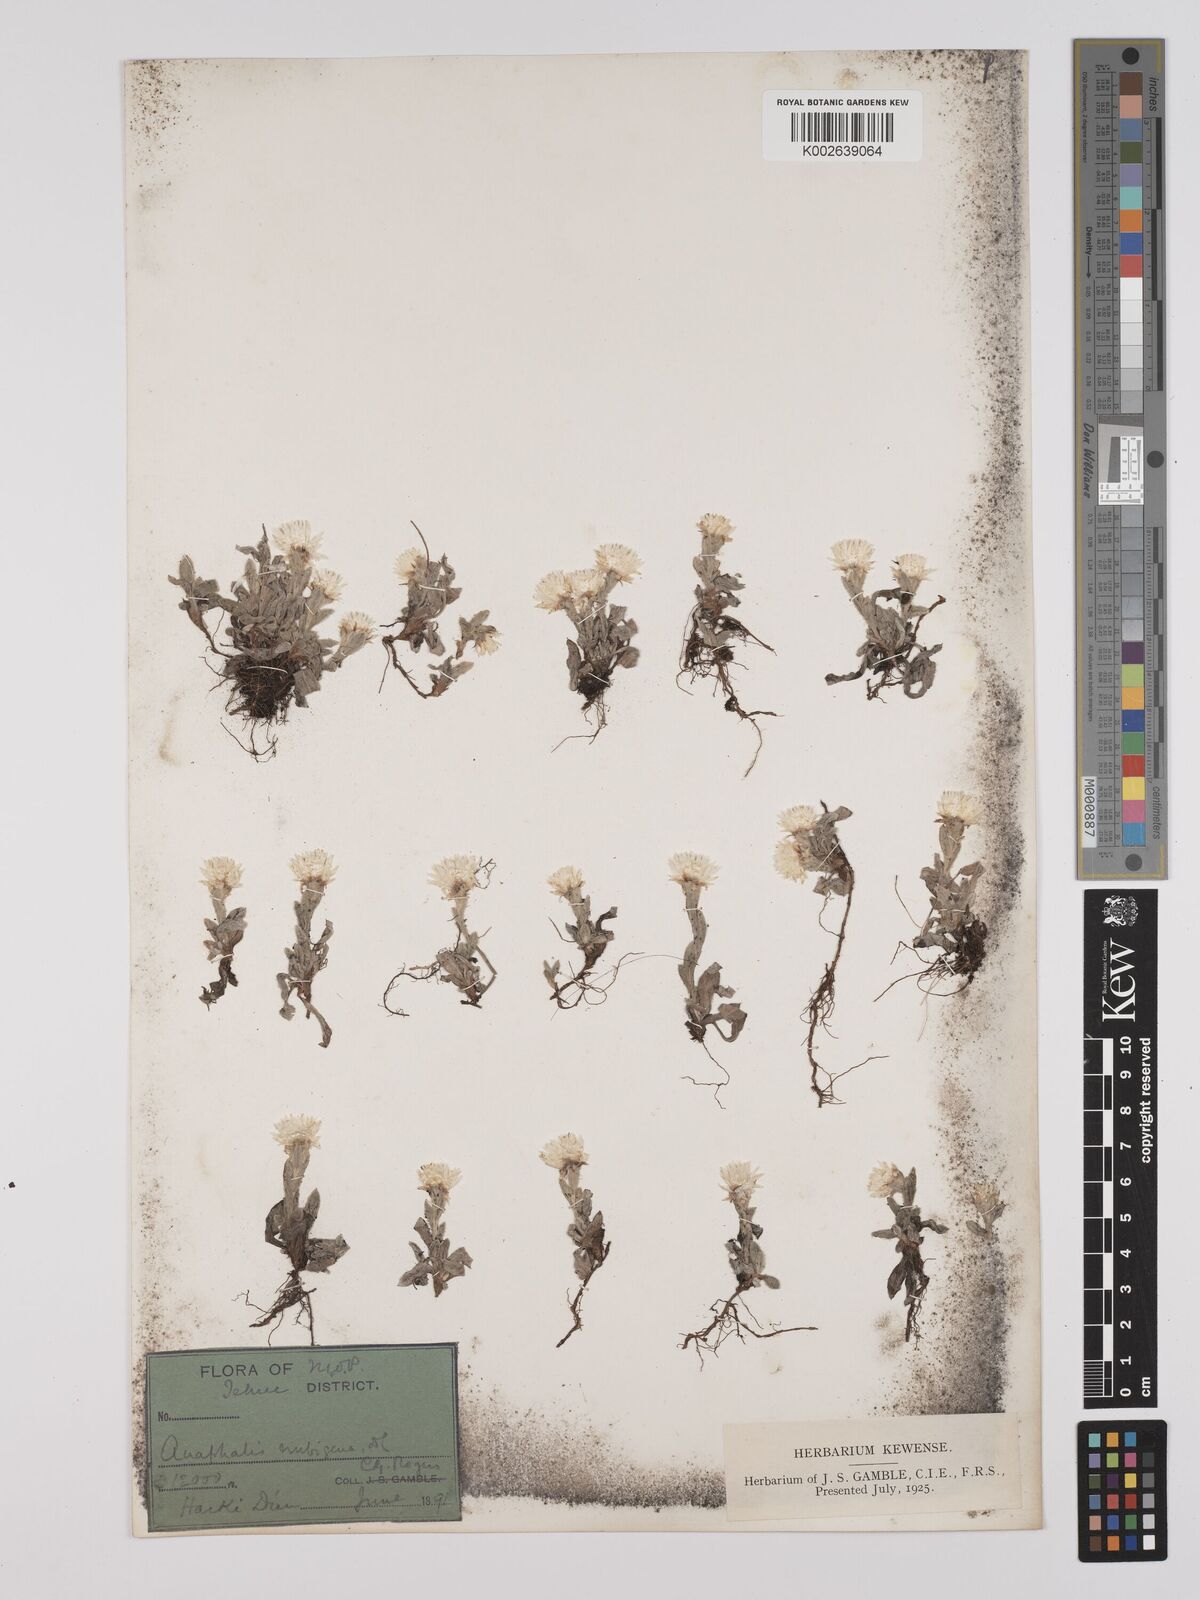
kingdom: Plantae
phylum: Tracheophyta
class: Magnoliopsida
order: Asterales
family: Asteraceae
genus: Anaphalis
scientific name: Anaphalis nepalensis
